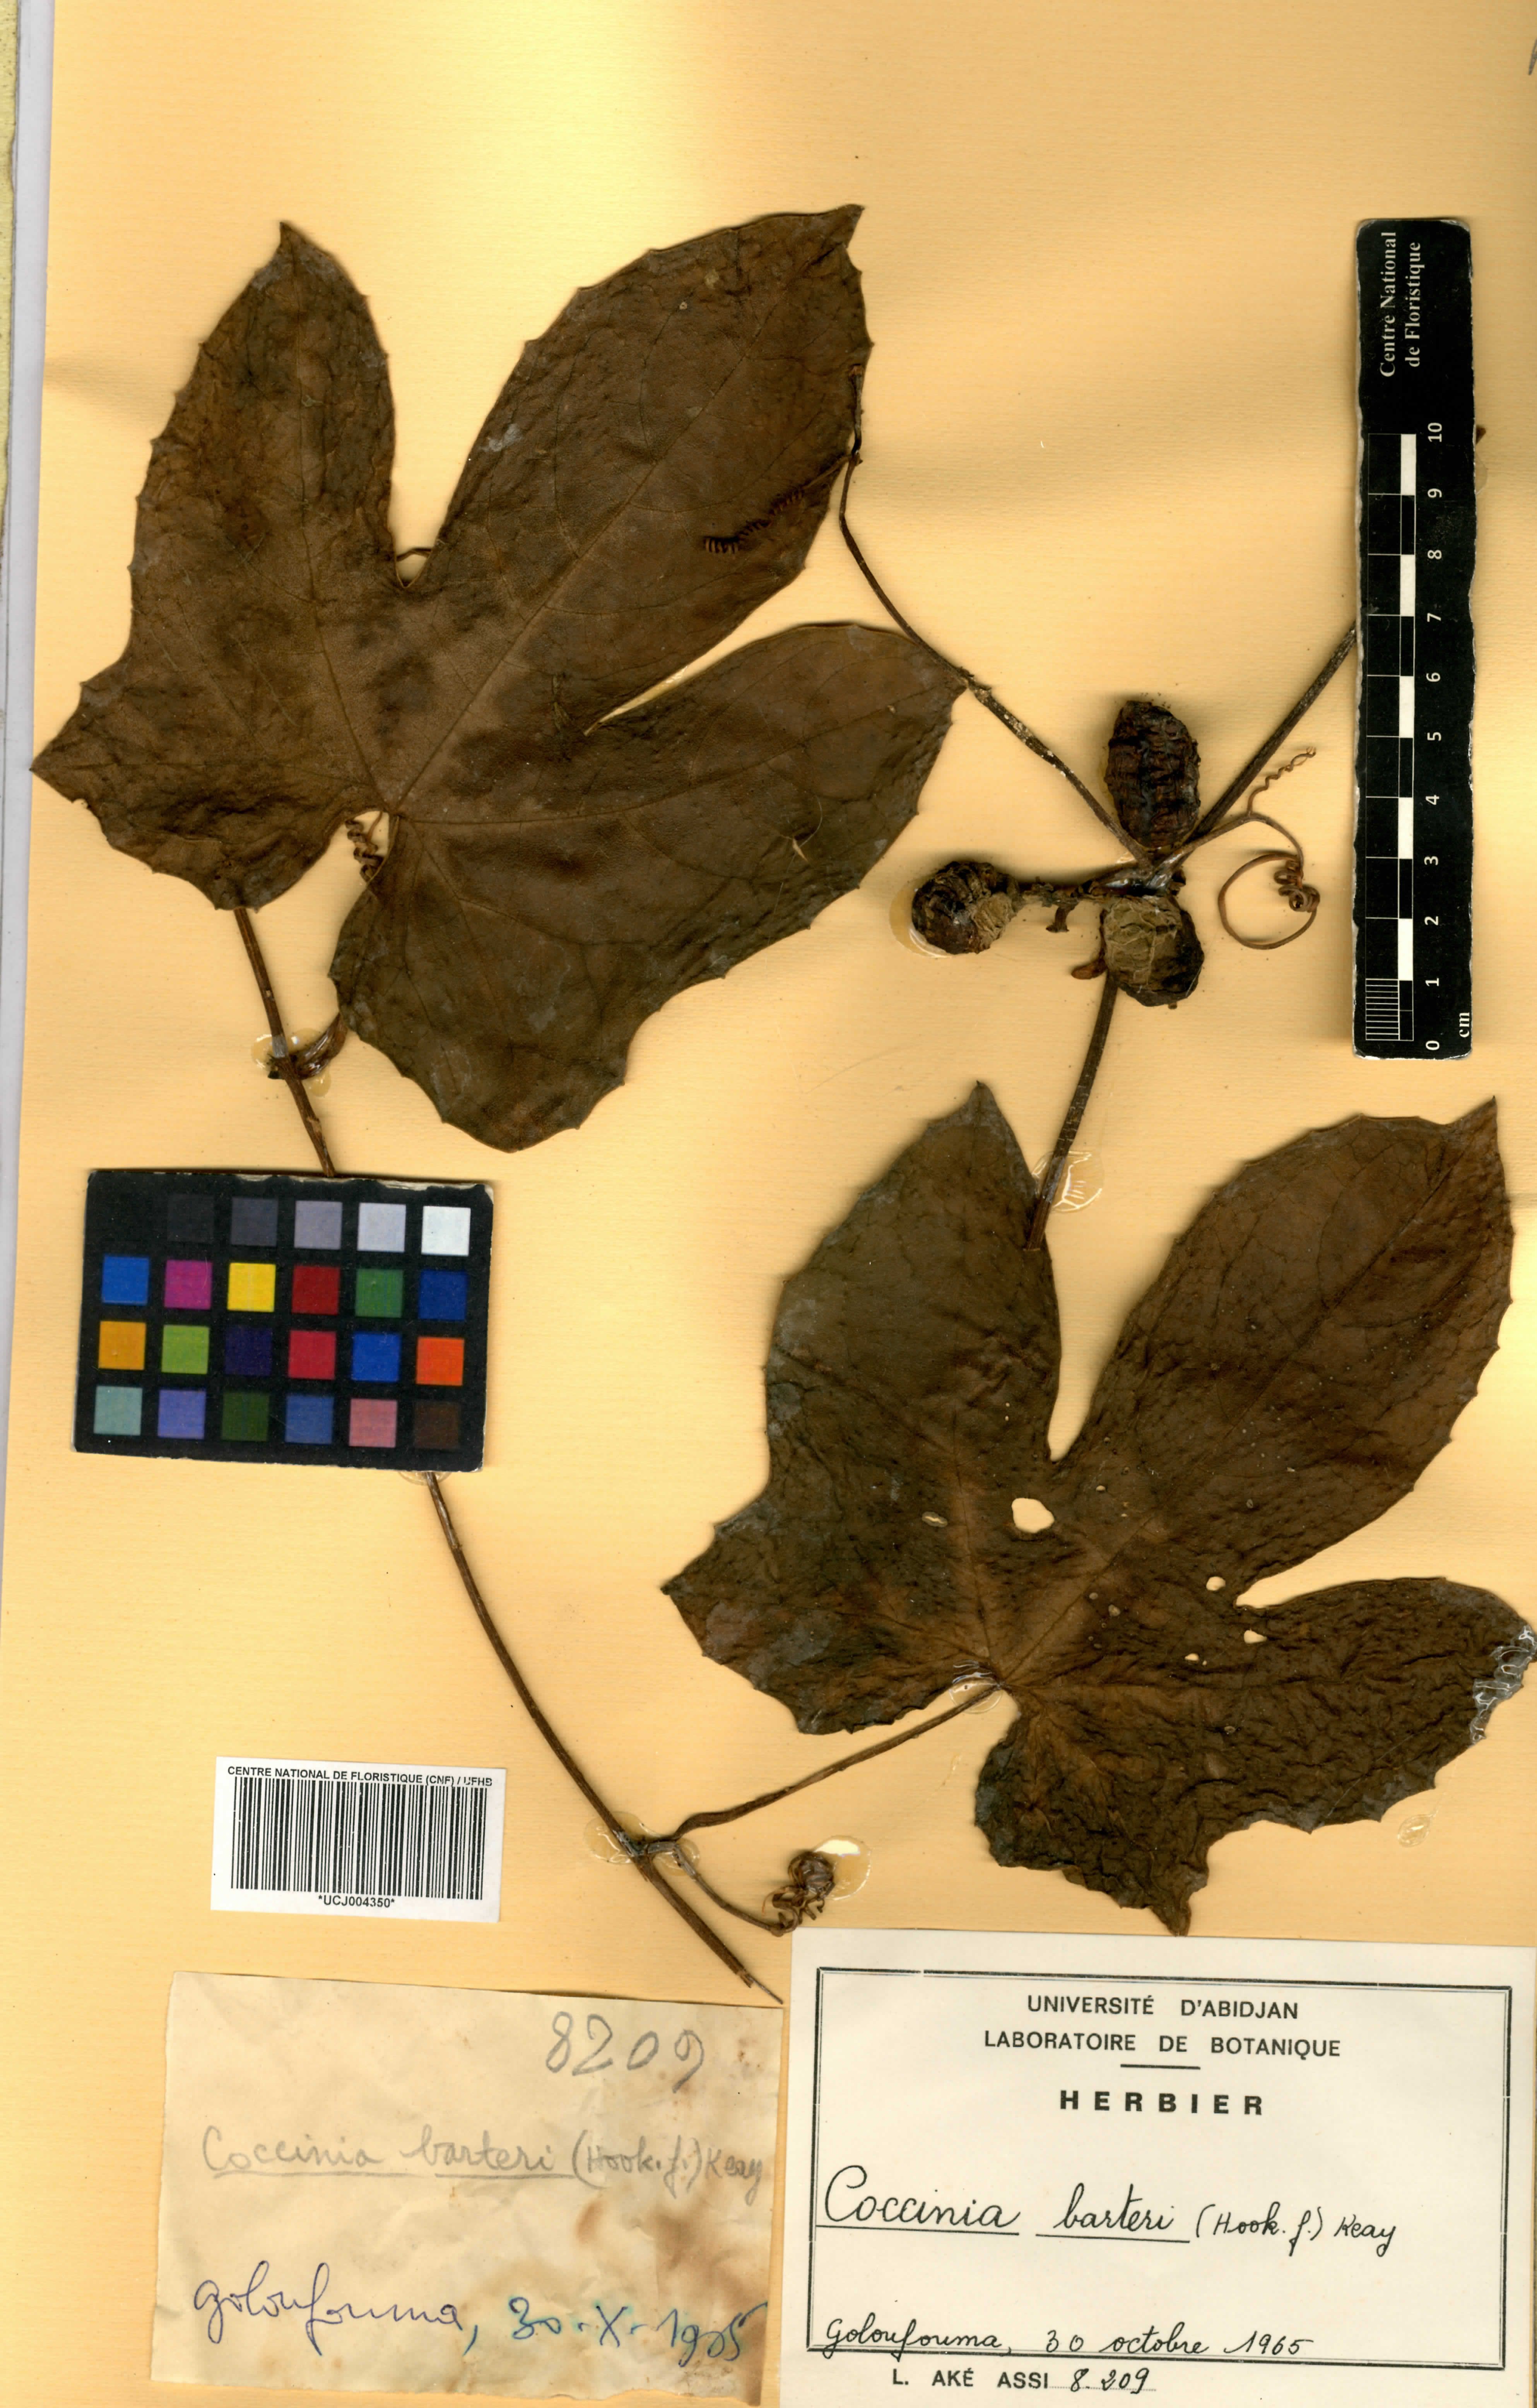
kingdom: Plantae
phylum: Tracheophyta
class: Magnoliopsida
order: Cucurbitales
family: Cucurbitaceae
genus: Coccinia
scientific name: Coccinia barteri
